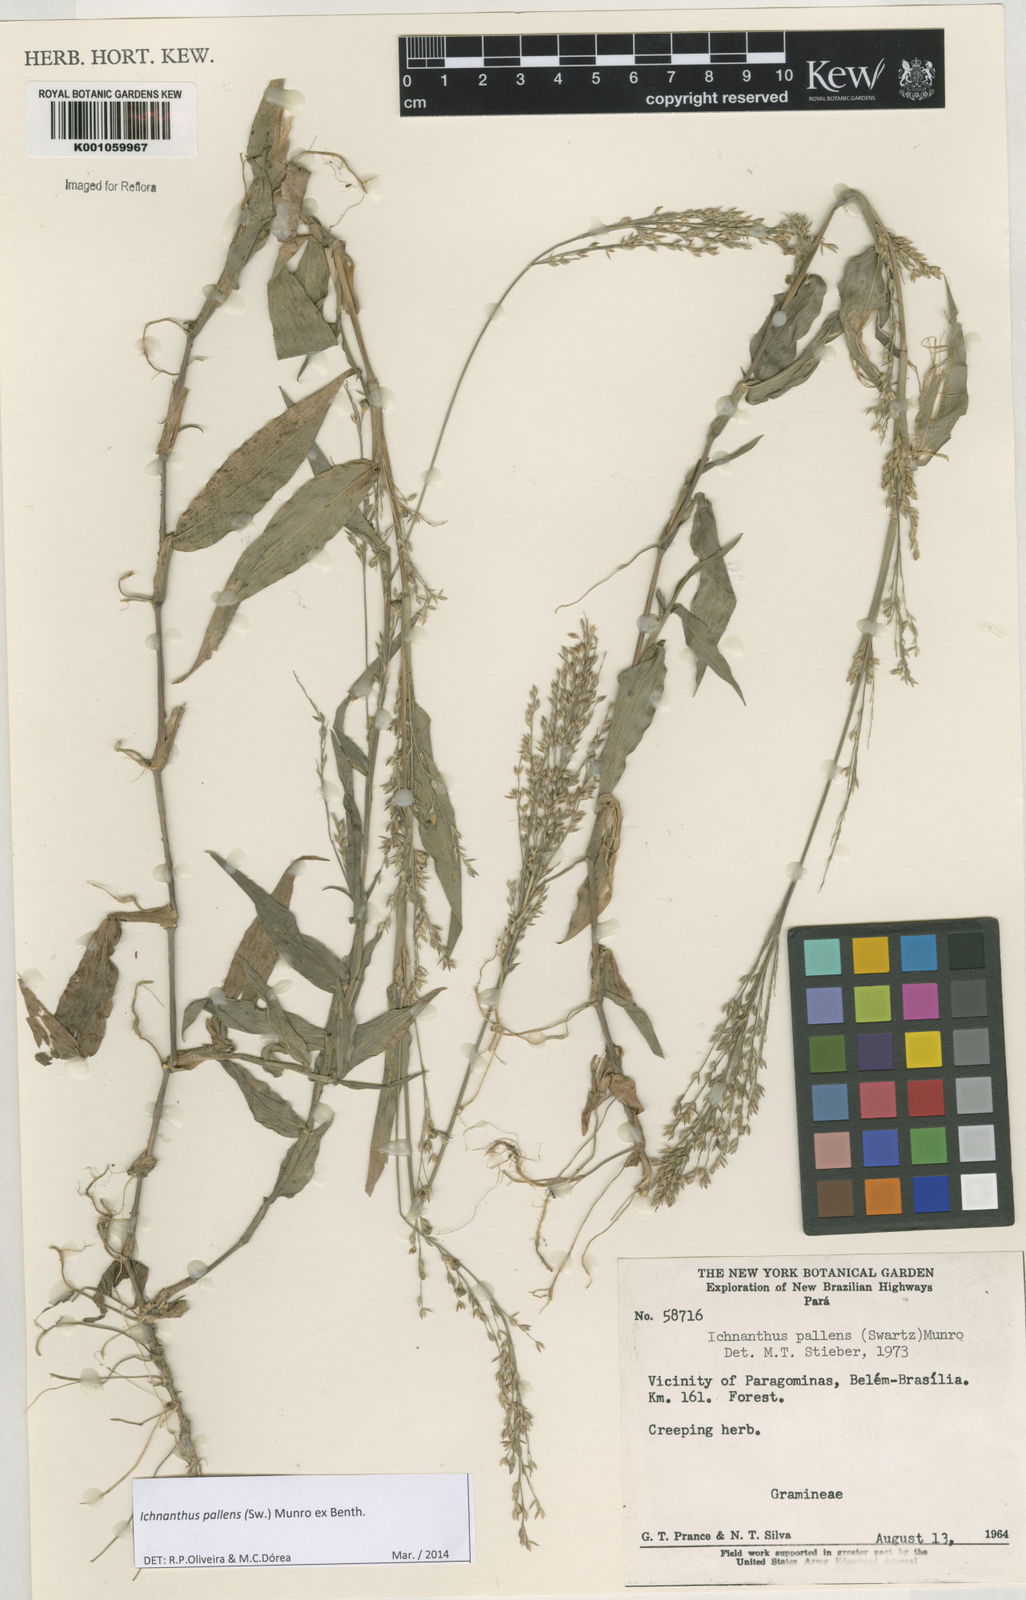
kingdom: Plantae
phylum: Tracheophyta
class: Liliopsida
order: Poales
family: Poaceae
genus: Ichnanthus
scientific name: Ichnanthus pallens
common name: Water grass
